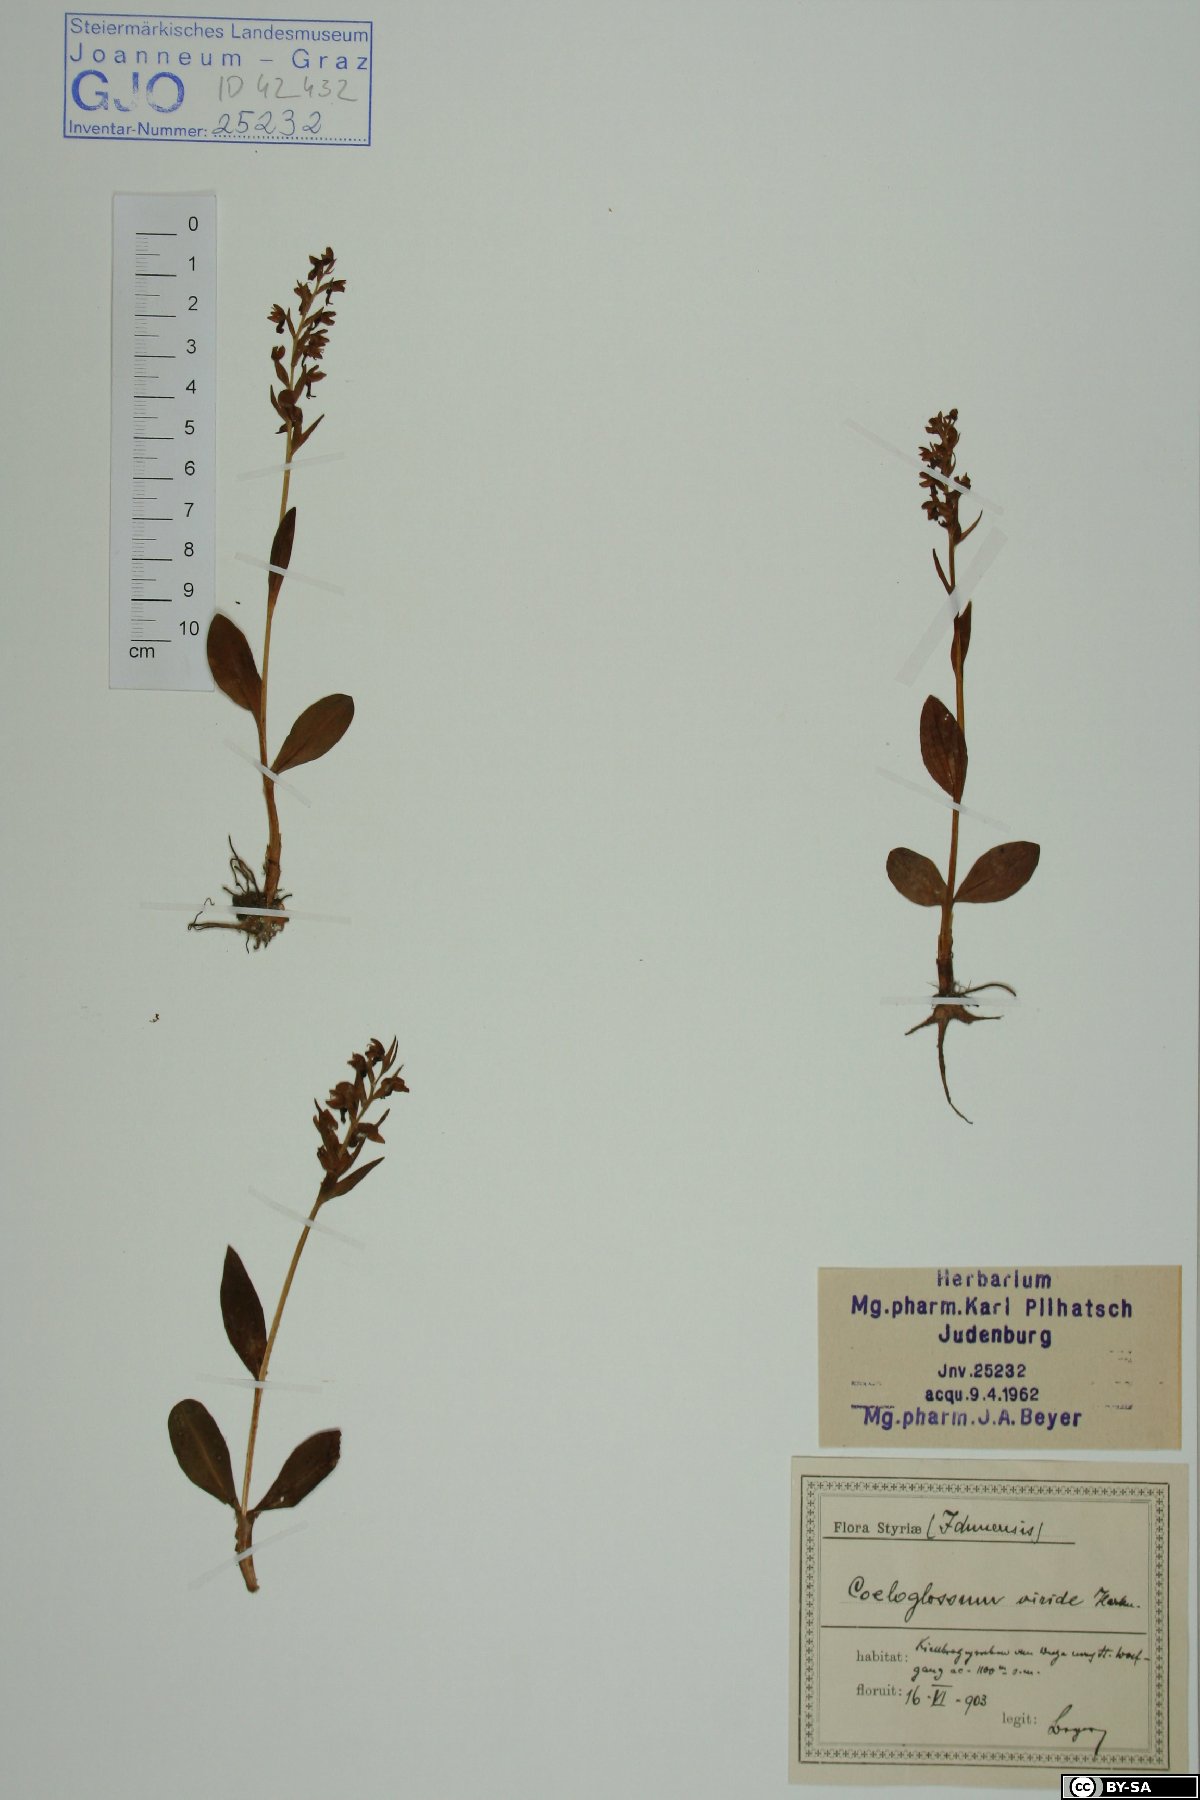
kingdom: Plantae
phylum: Tracheophyta
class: Liliopsida
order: Asparagales
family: Orchidaceae
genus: Dactylorhiza
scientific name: Dactylorhiza viridis
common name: Longbract frog orchid
